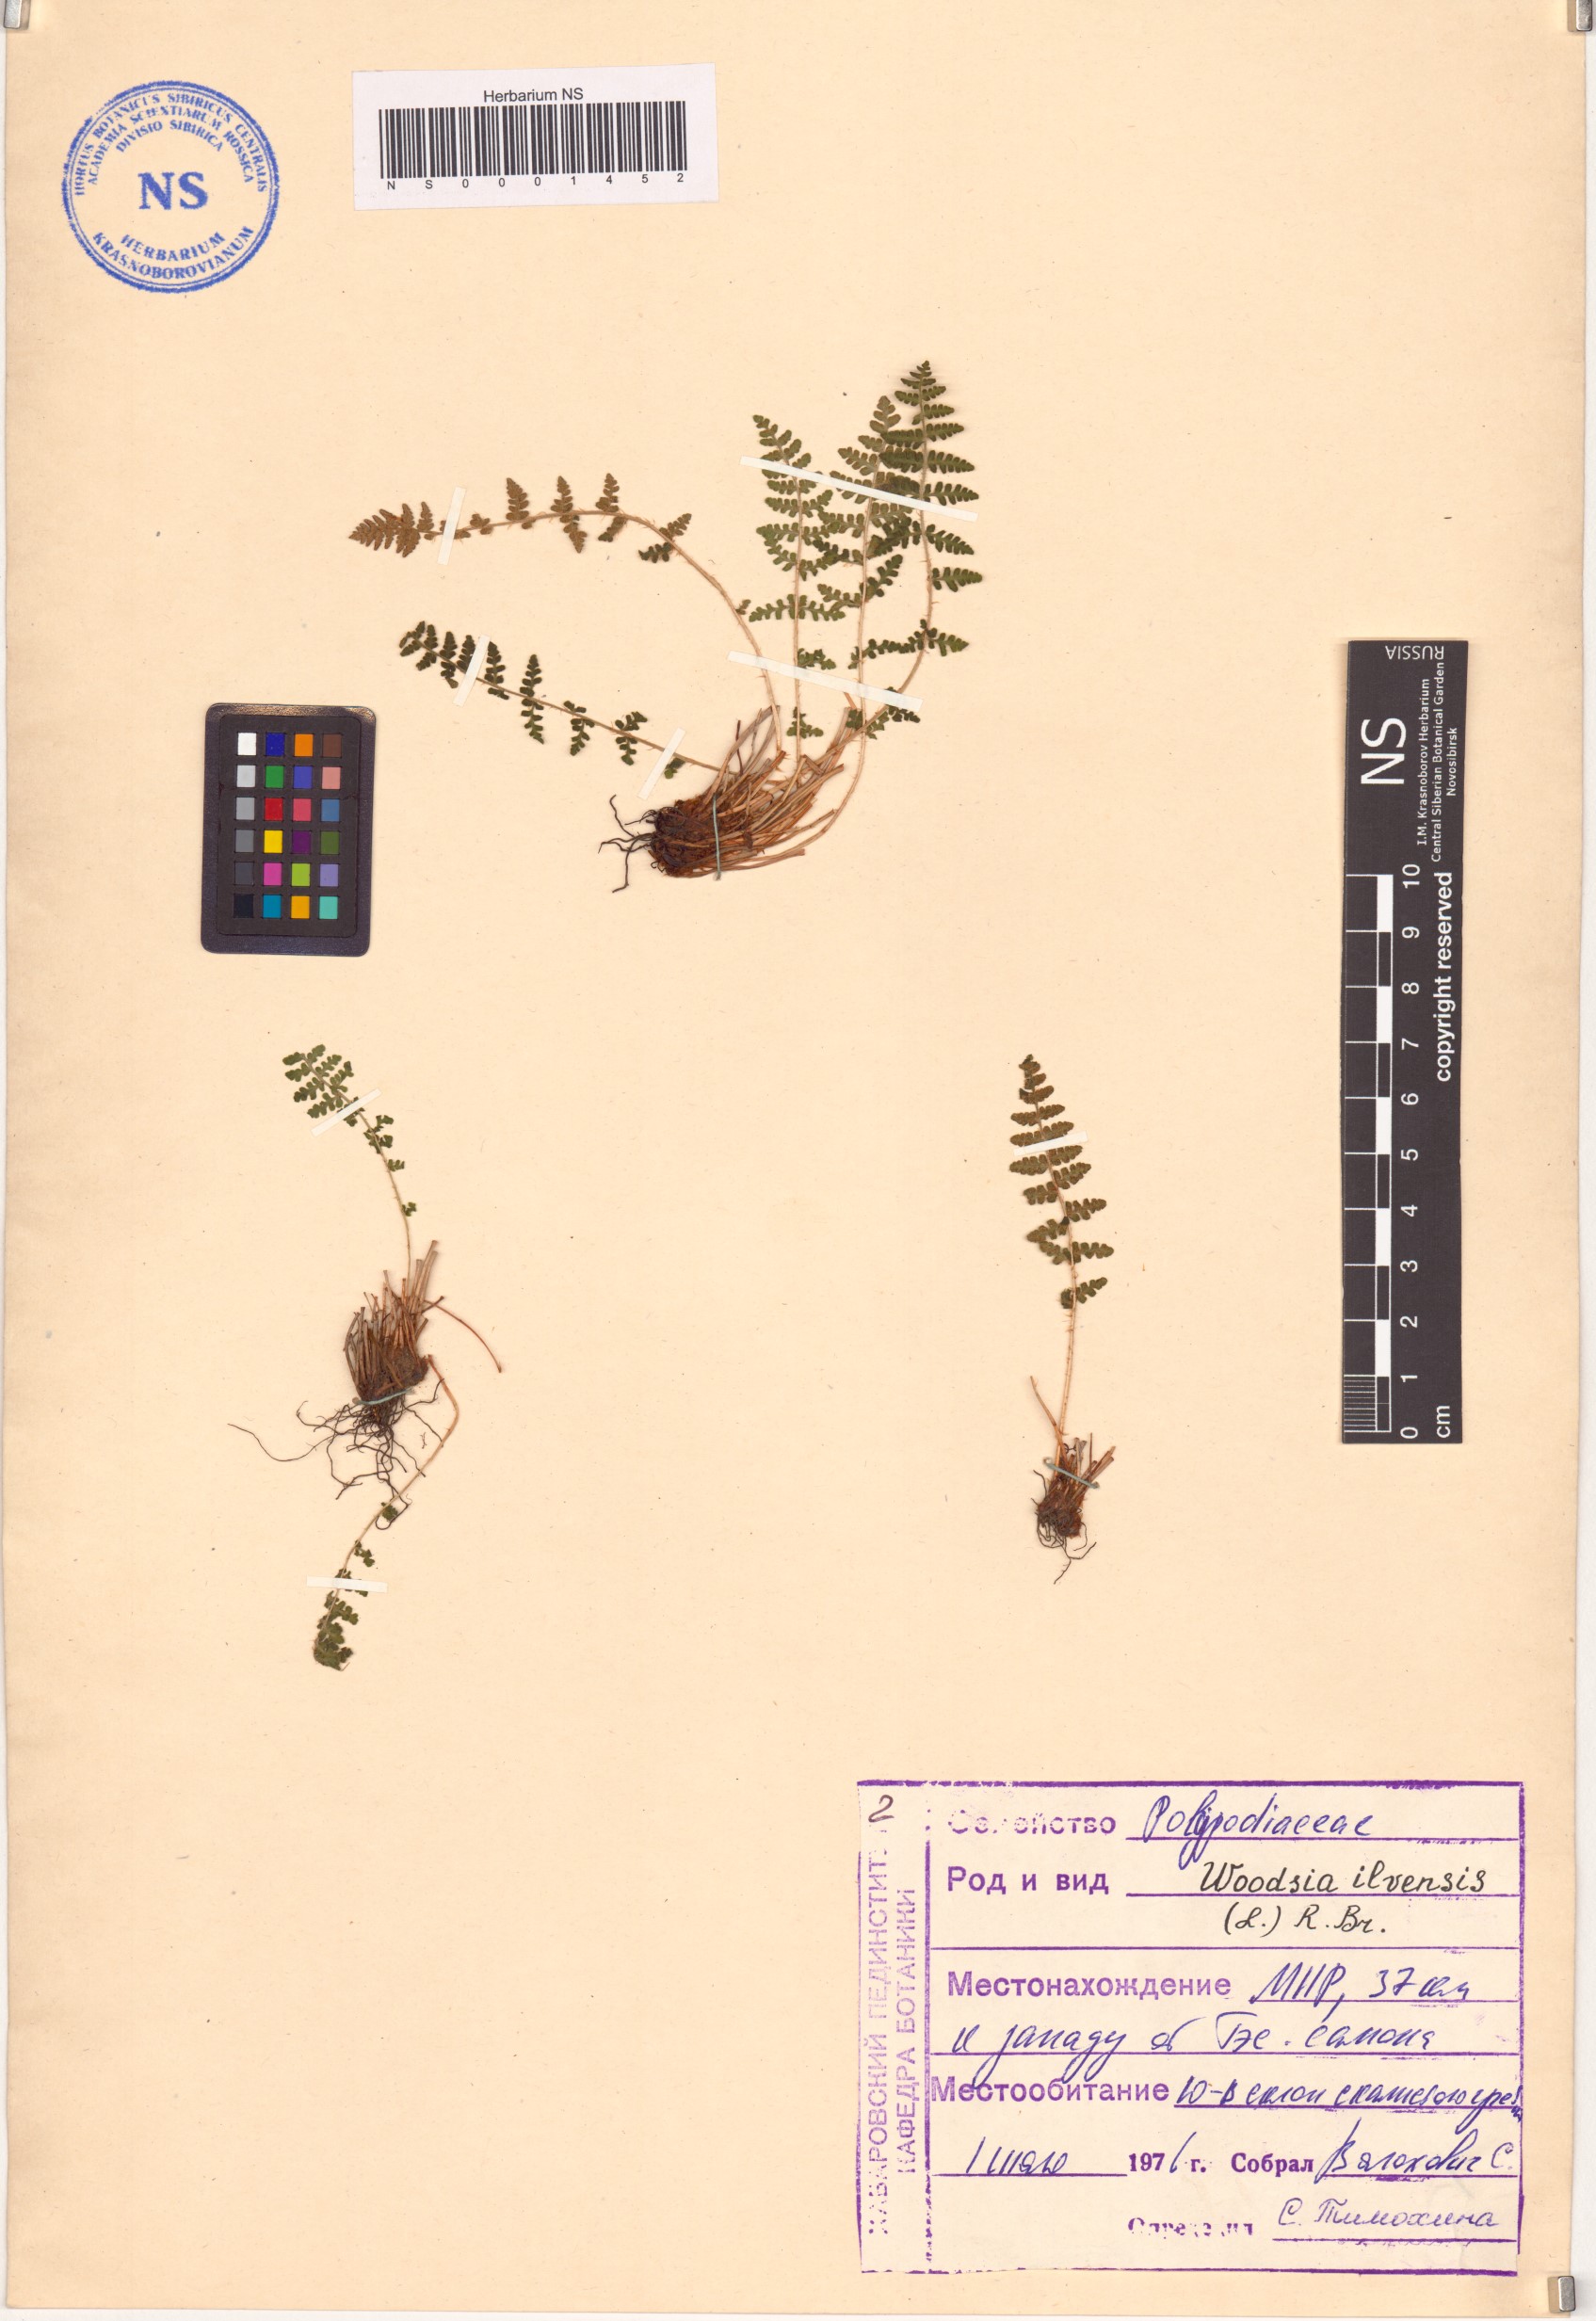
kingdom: Plantae
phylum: Tracheophyta
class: Polypodiopsida
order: Polypodiales
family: Woodsiaceae
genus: Woodsia
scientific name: Woodsia ilvensis
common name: Fragrant woodsia
